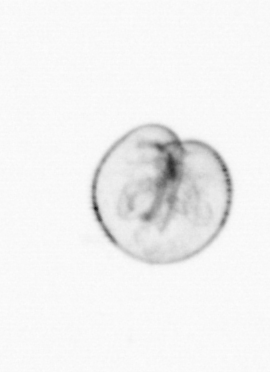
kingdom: Chromista
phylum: Myzozoa
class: Dinophyceae
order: Noctilucales
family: Noctilucaceae
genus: Noctiluca
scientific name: Noctiluca scintillans
